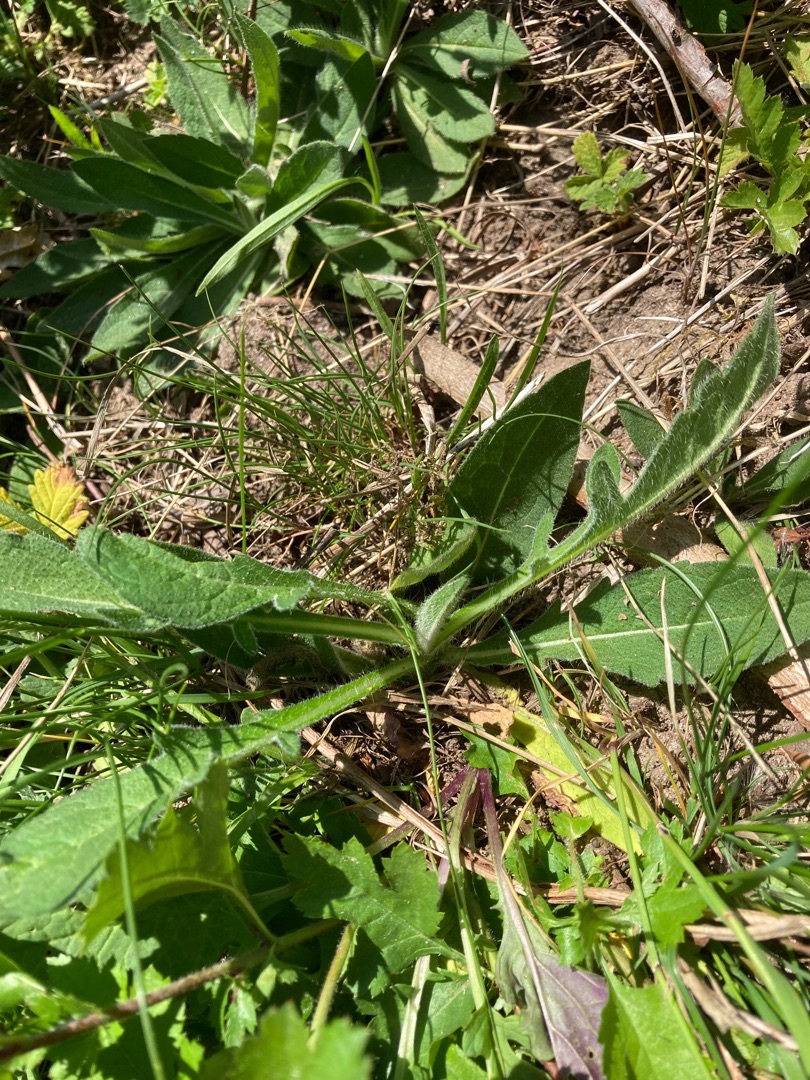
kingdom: Plantae
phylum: Tracheophyta
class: Magnoliopsida
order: Dipsacales
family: Caprifoliaceae
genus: Knautia
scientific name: Knautia arvensis
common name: Blåhat
